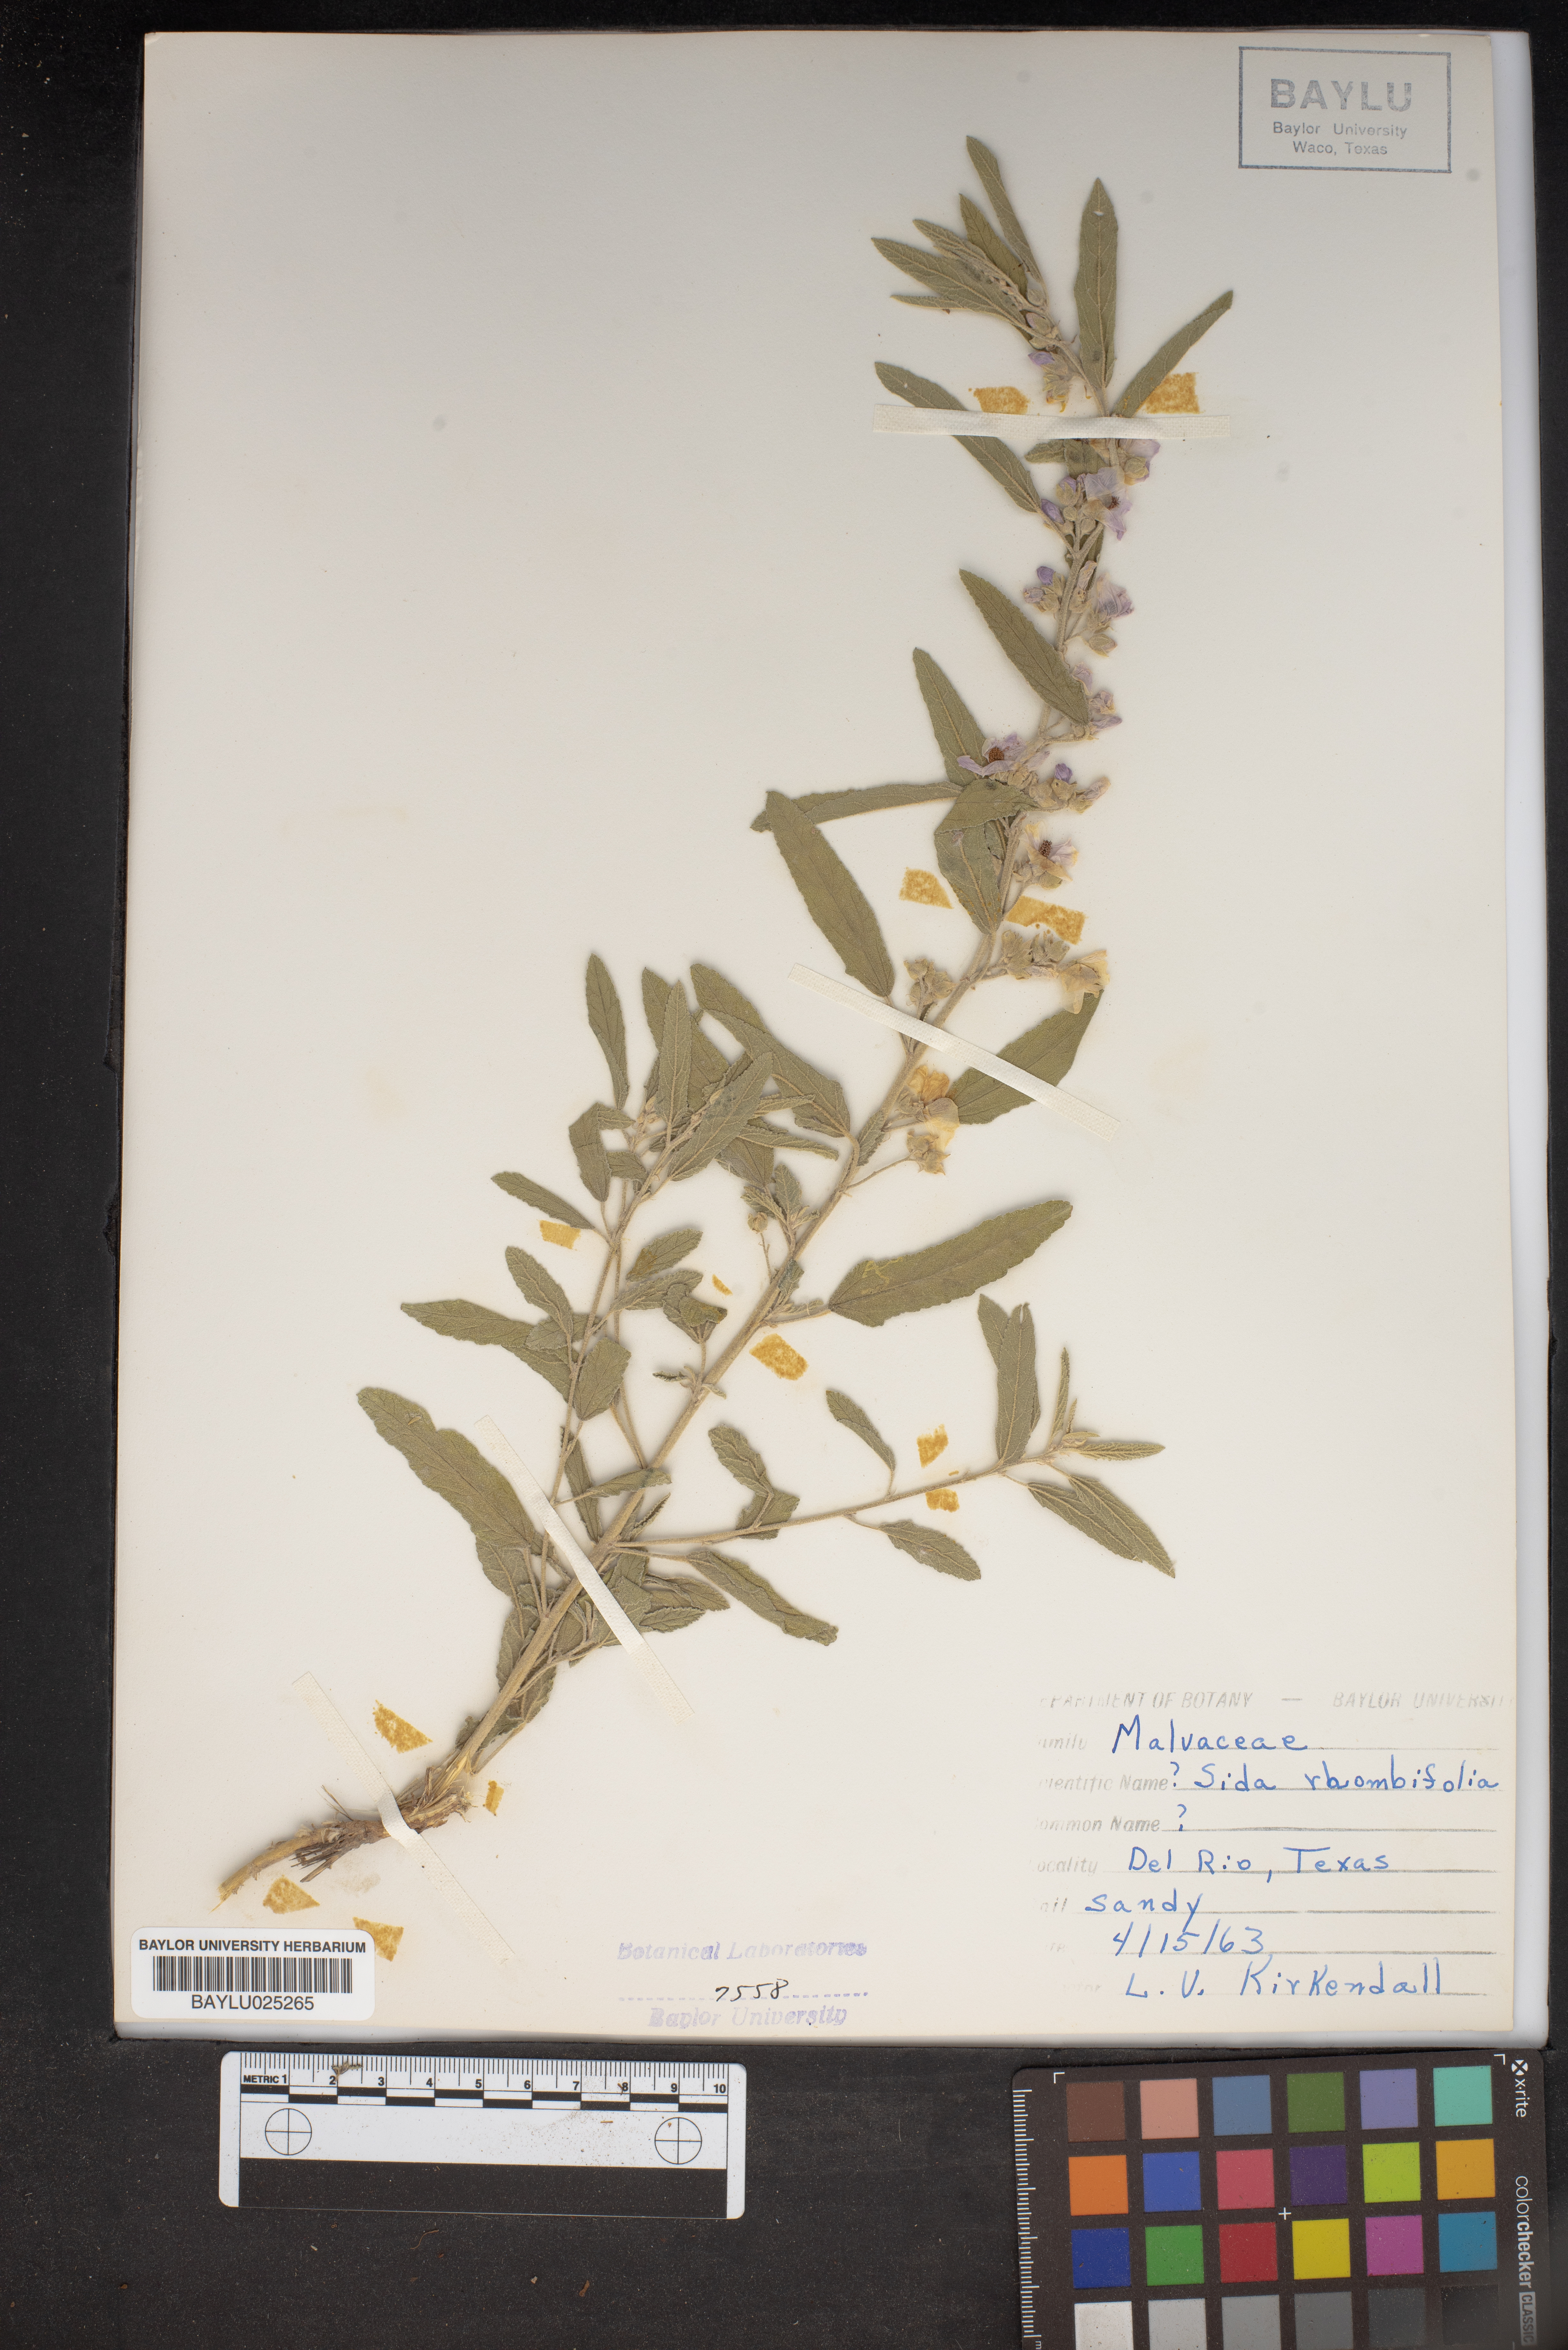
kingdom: Plantae
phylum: Tracheophyta
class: Magnoliopsida
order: Malvales
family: Malvaceae
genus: Sida
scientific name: Sida rhombifolia
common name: Queensland-hemp
